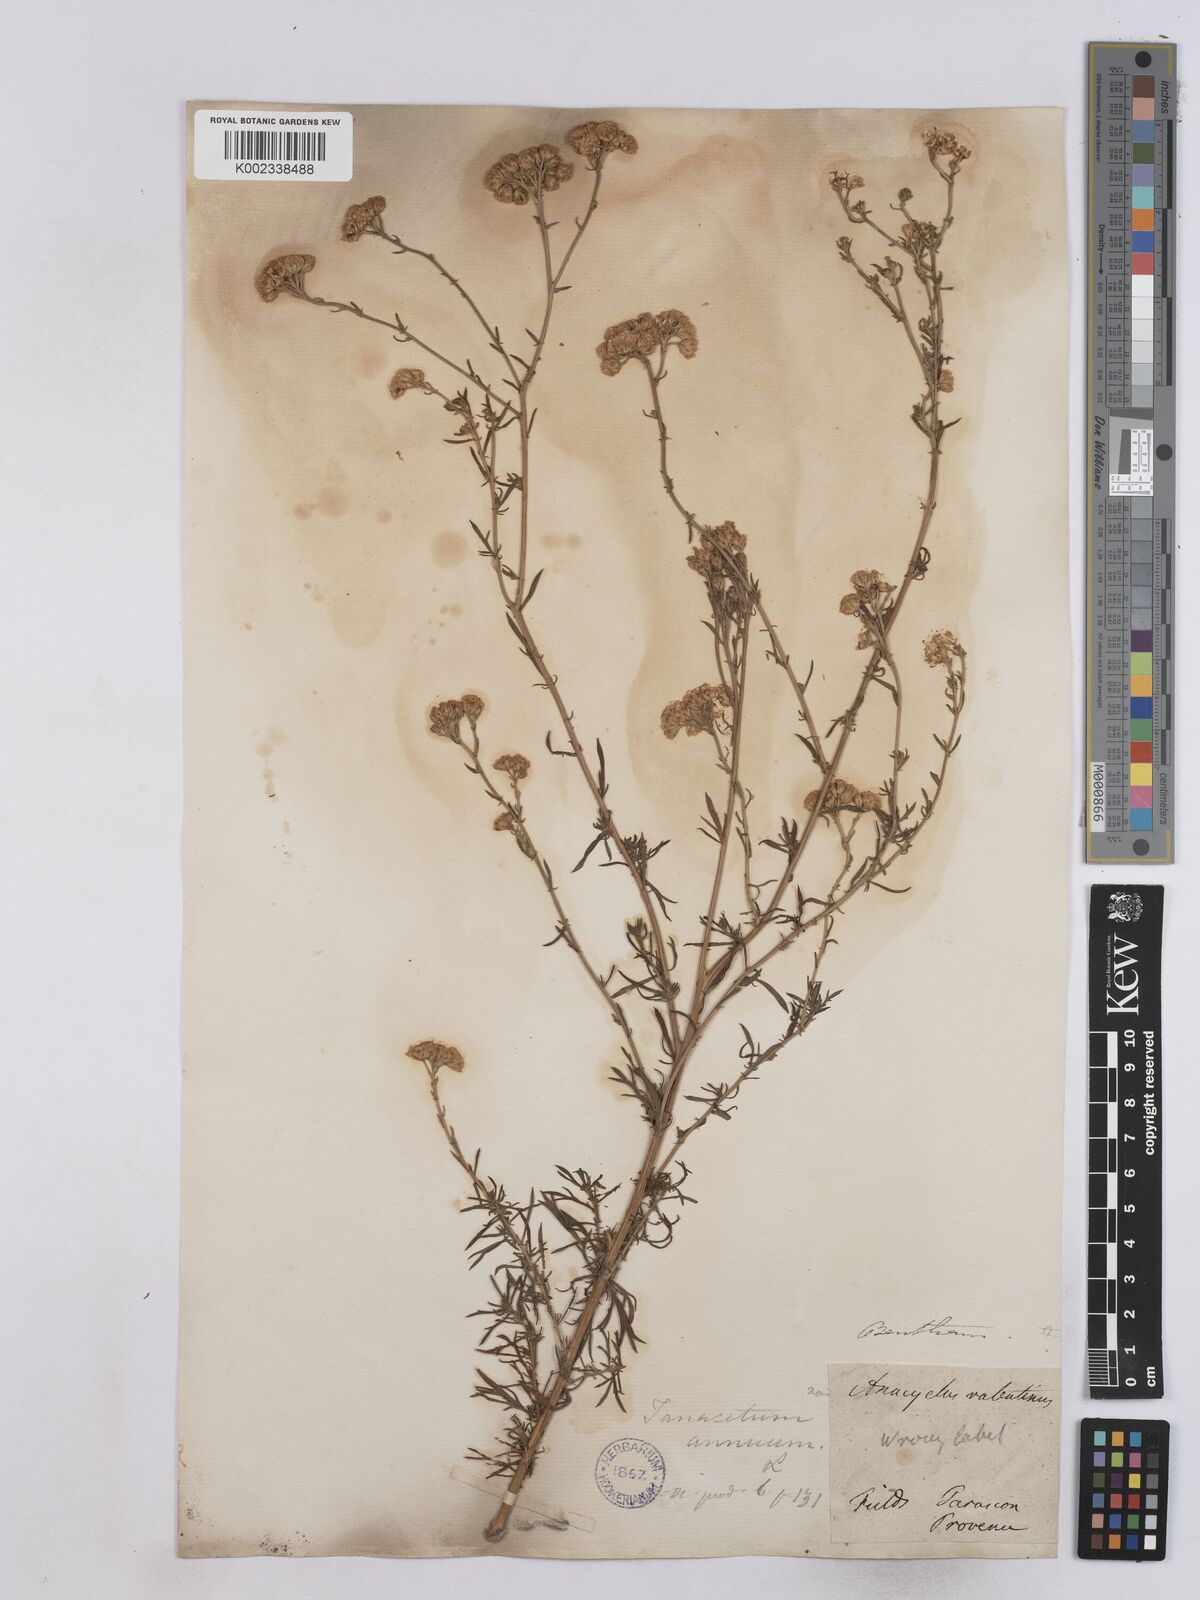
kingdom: Plantae
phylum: Tracheophyta
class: Magnoliopsida
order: Asterales
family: Asteraceae
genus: Vogtia
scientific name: Vogtia annua
